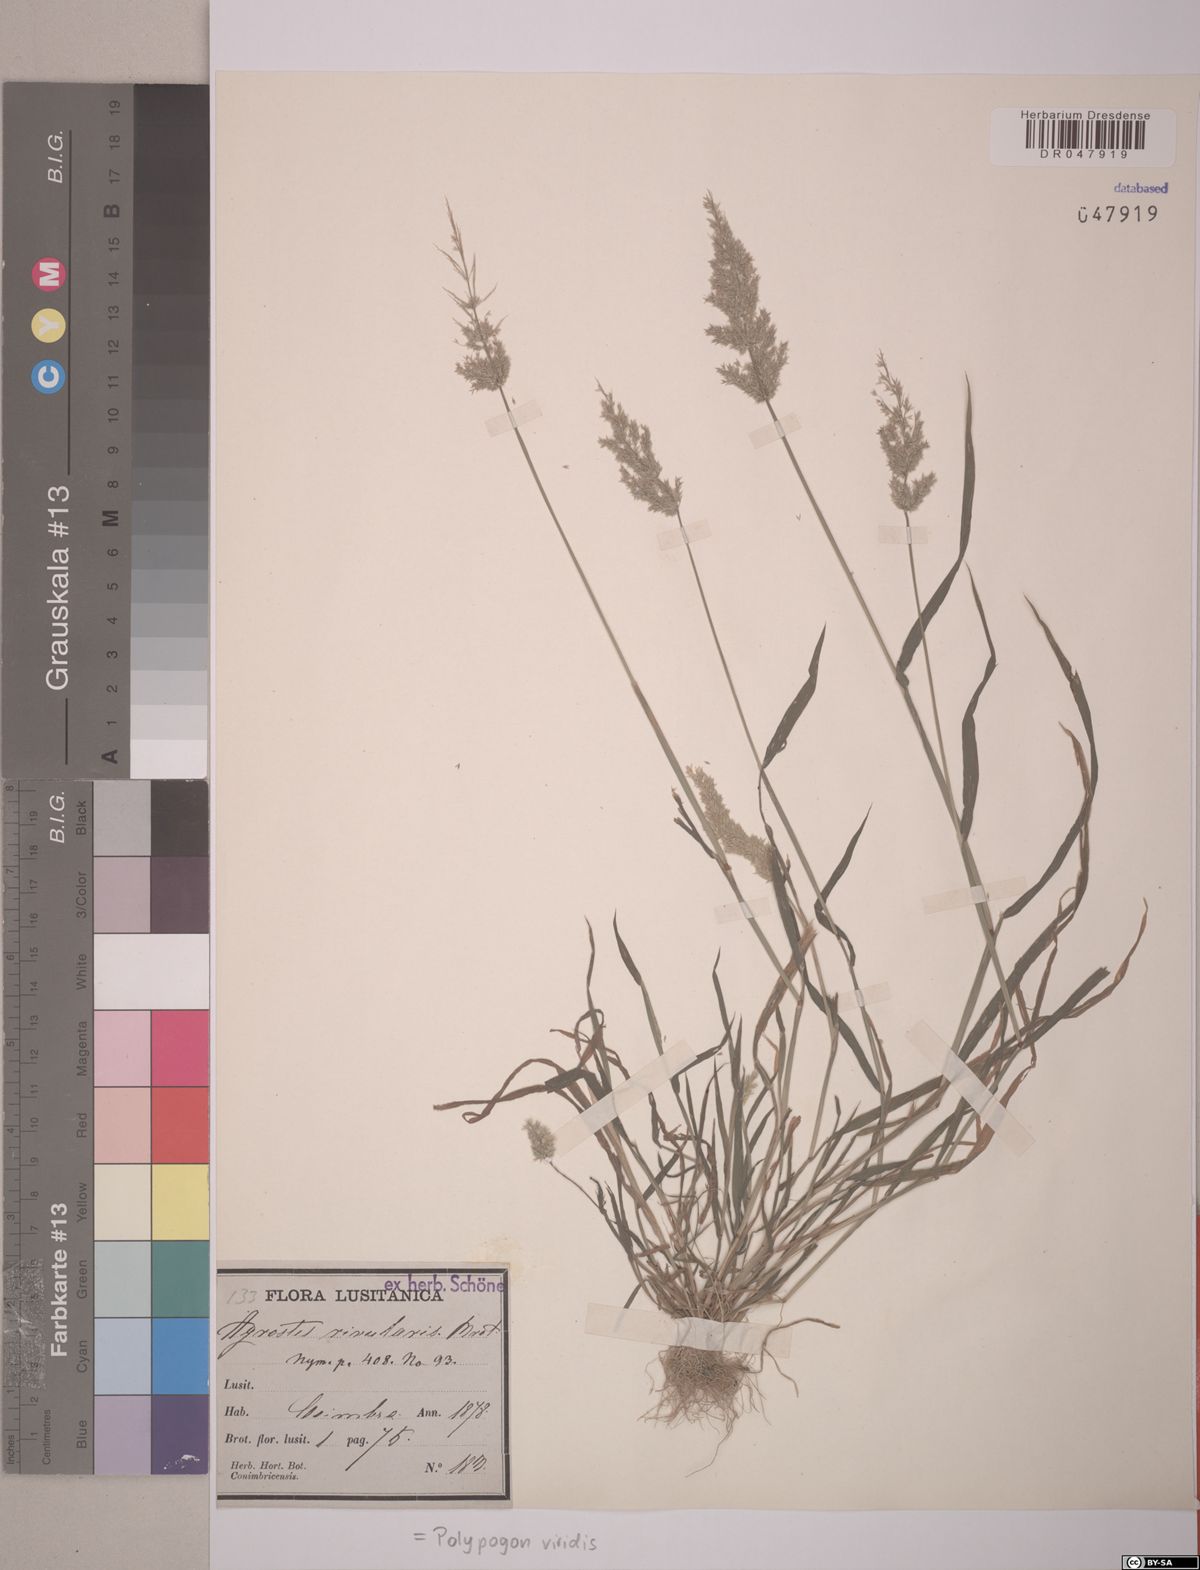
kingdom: Plantae
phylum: Tracheophyta
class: Liliopsida
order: Poales
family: Poaceae
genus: Polypogon
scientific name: Polypogon viridis
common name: Water bent
